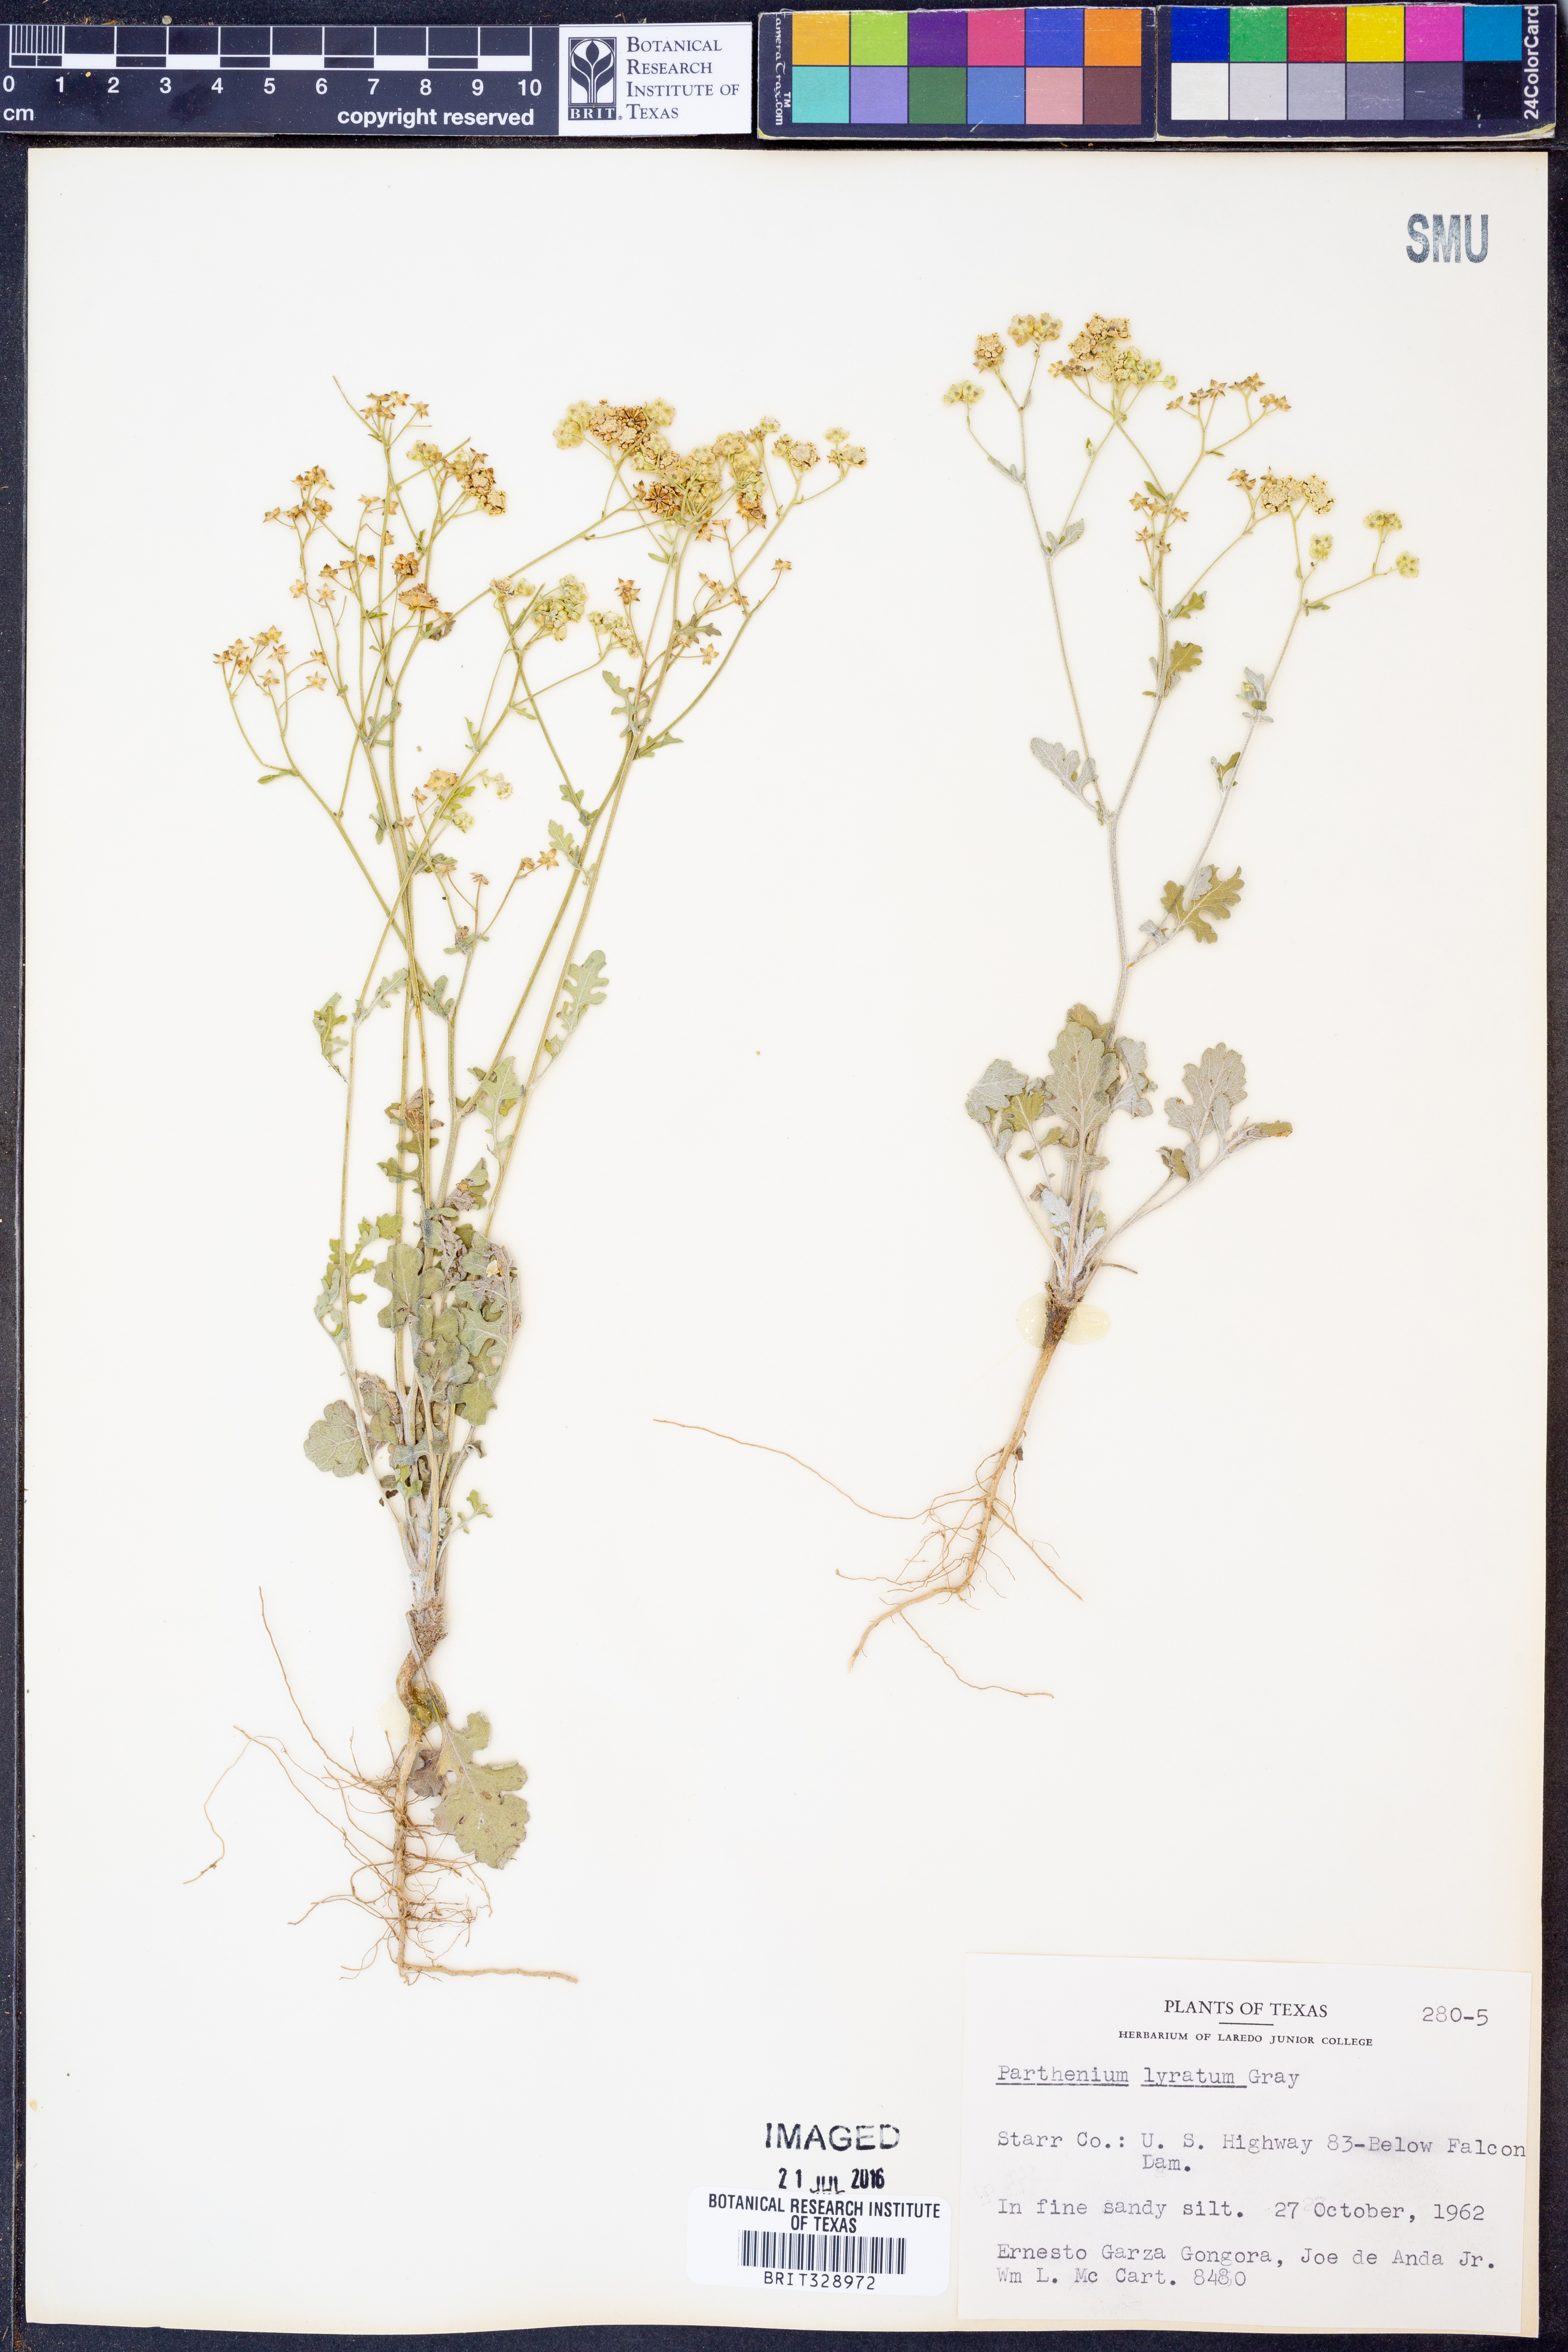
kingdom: Plantae
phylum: Tracheophyta
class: Magnoliopsida
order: Asterales
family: Asteraceae
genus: Parthenium
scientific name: Parthenium confertum
